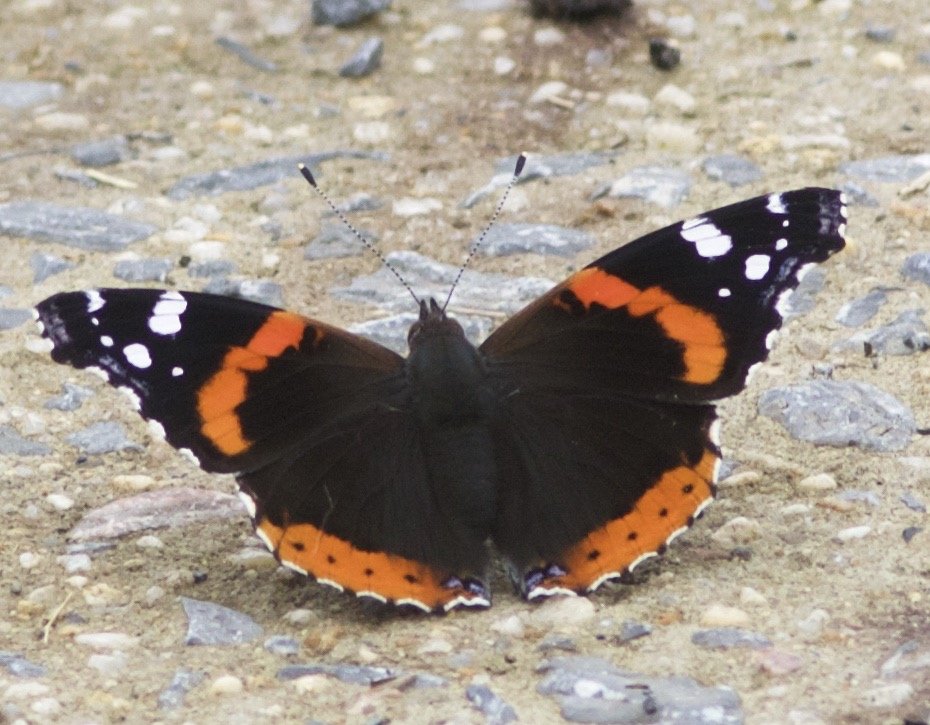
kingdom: Animalia
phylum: Arthropoda
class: Insecta
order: Lepidoptera
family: Nymphalidae
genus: Vanessa
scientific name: Vanessa atalanta
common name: Red Admiral
